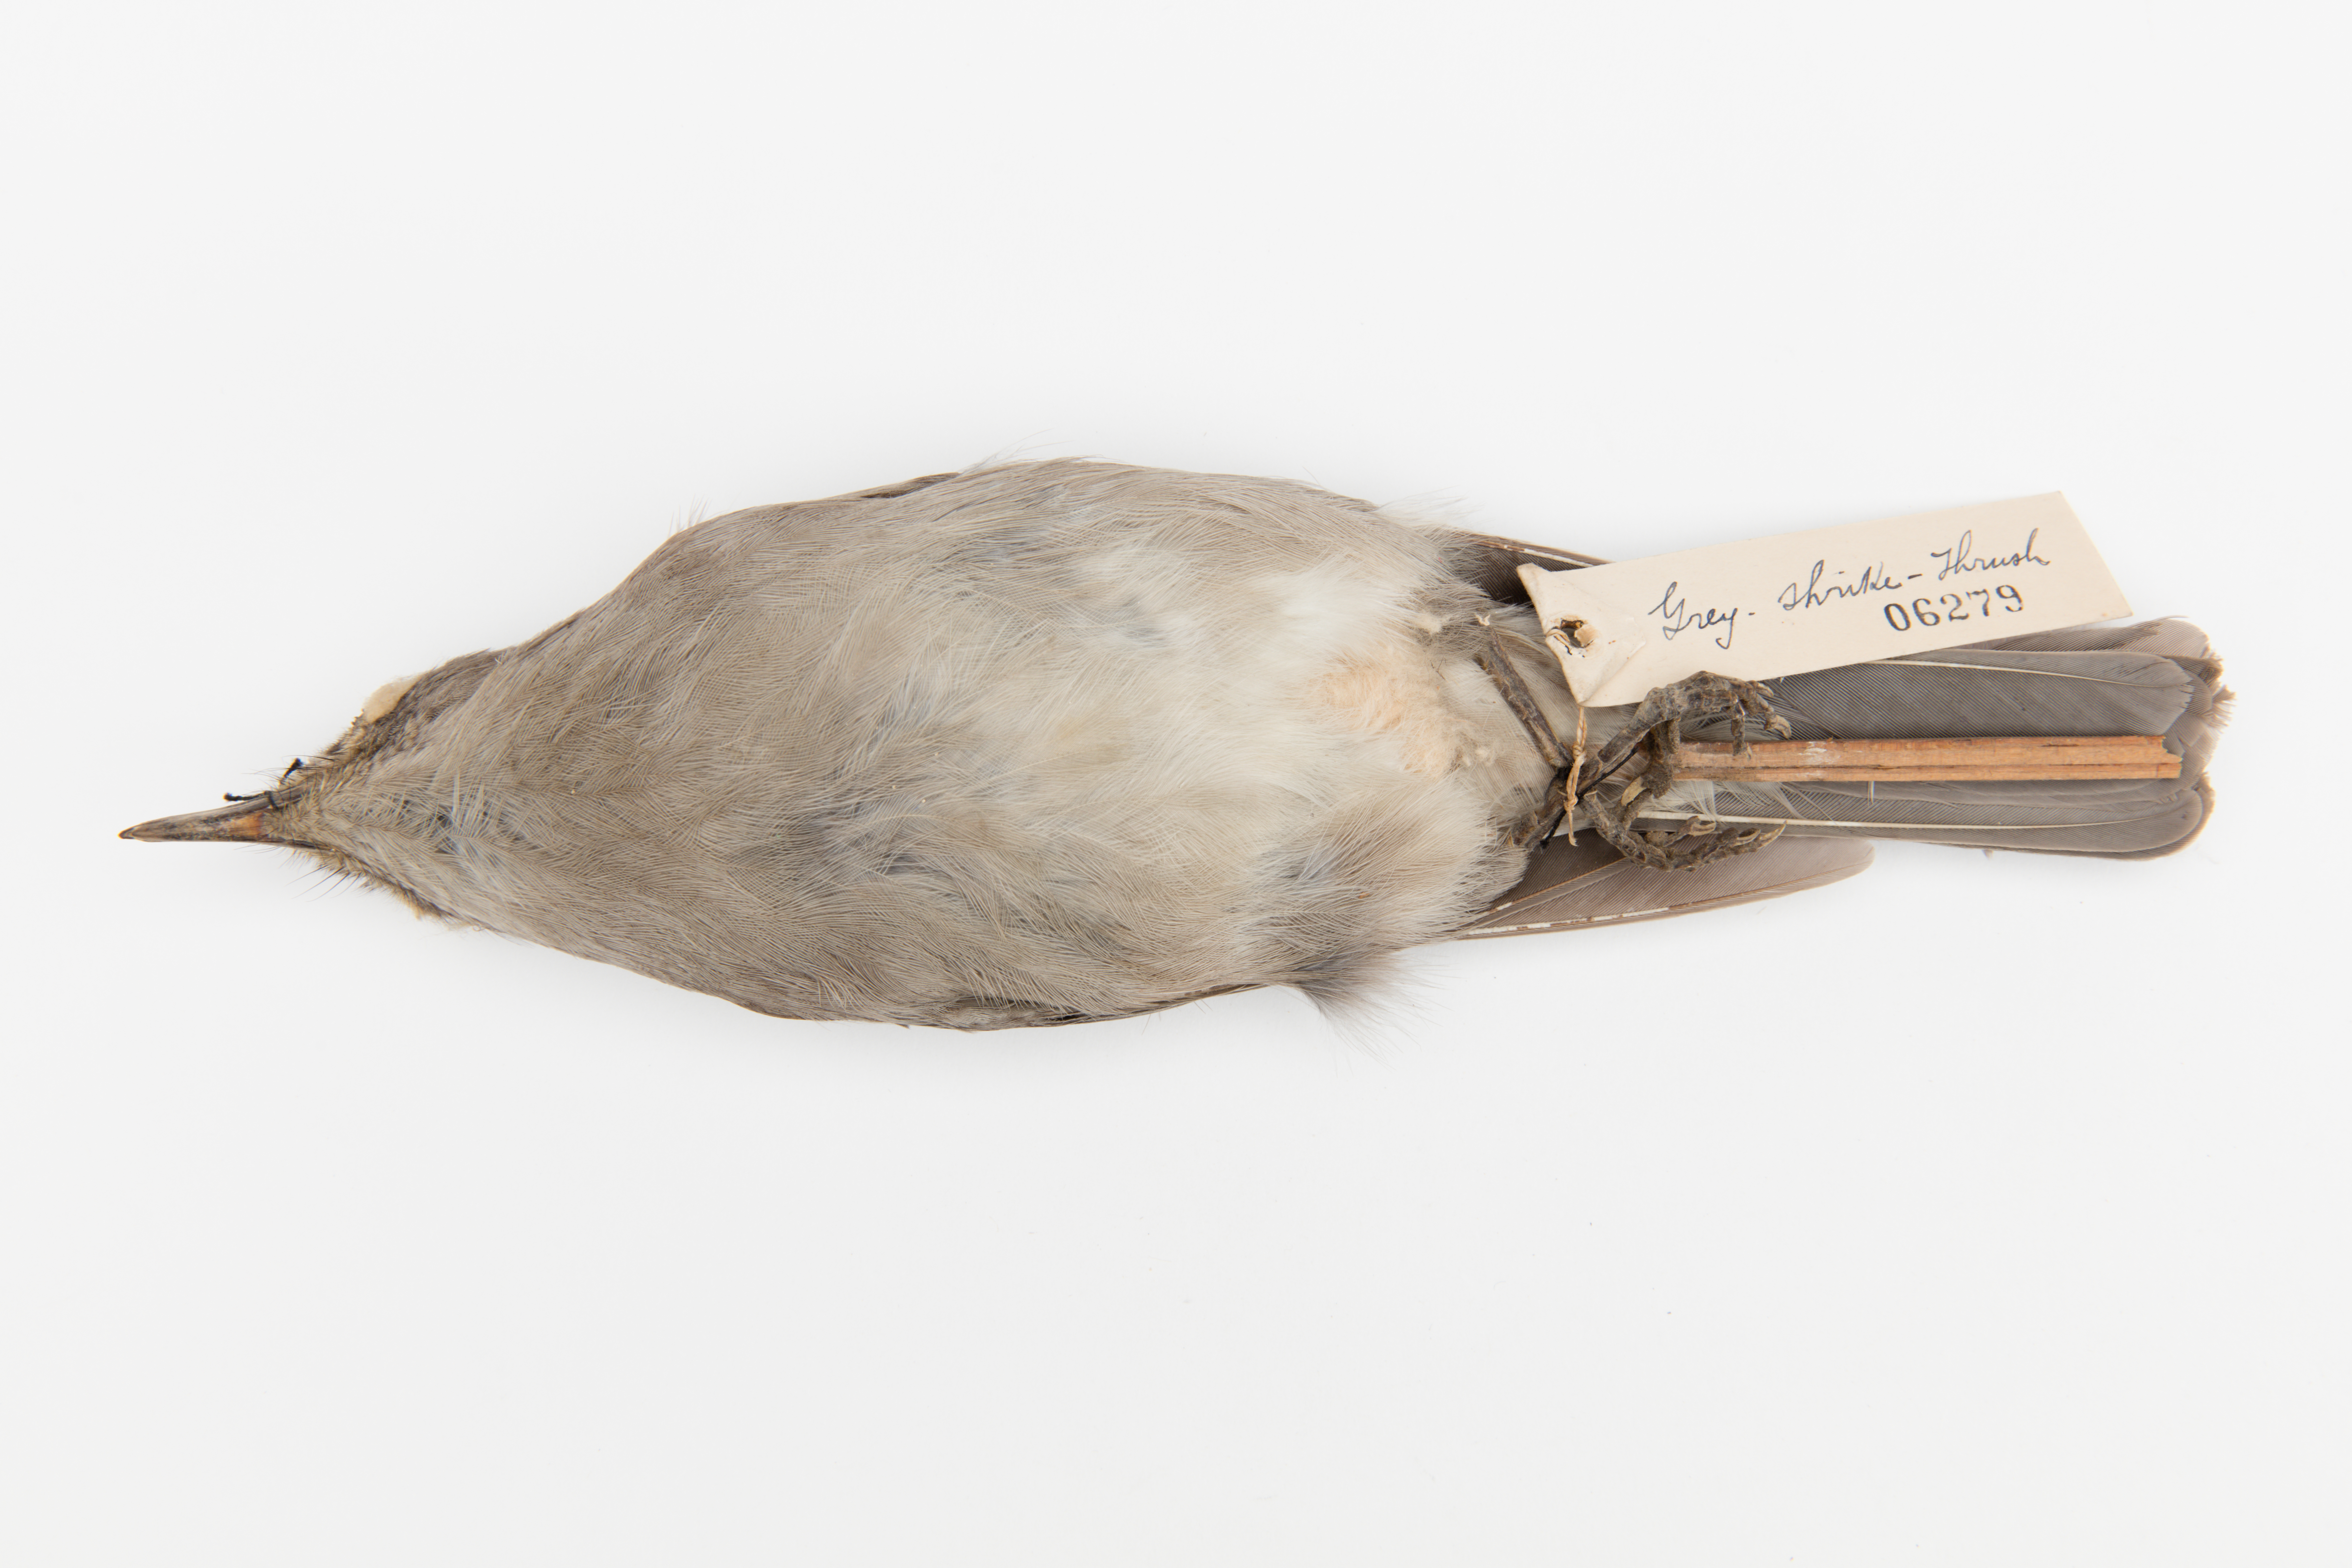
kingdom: Animalia
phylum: Chordata
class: Aves
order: Passeriformes
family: Pachycephalidae
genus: Colluricincla
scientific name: Colluricincla harmonica
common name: Grey shrikethrush
